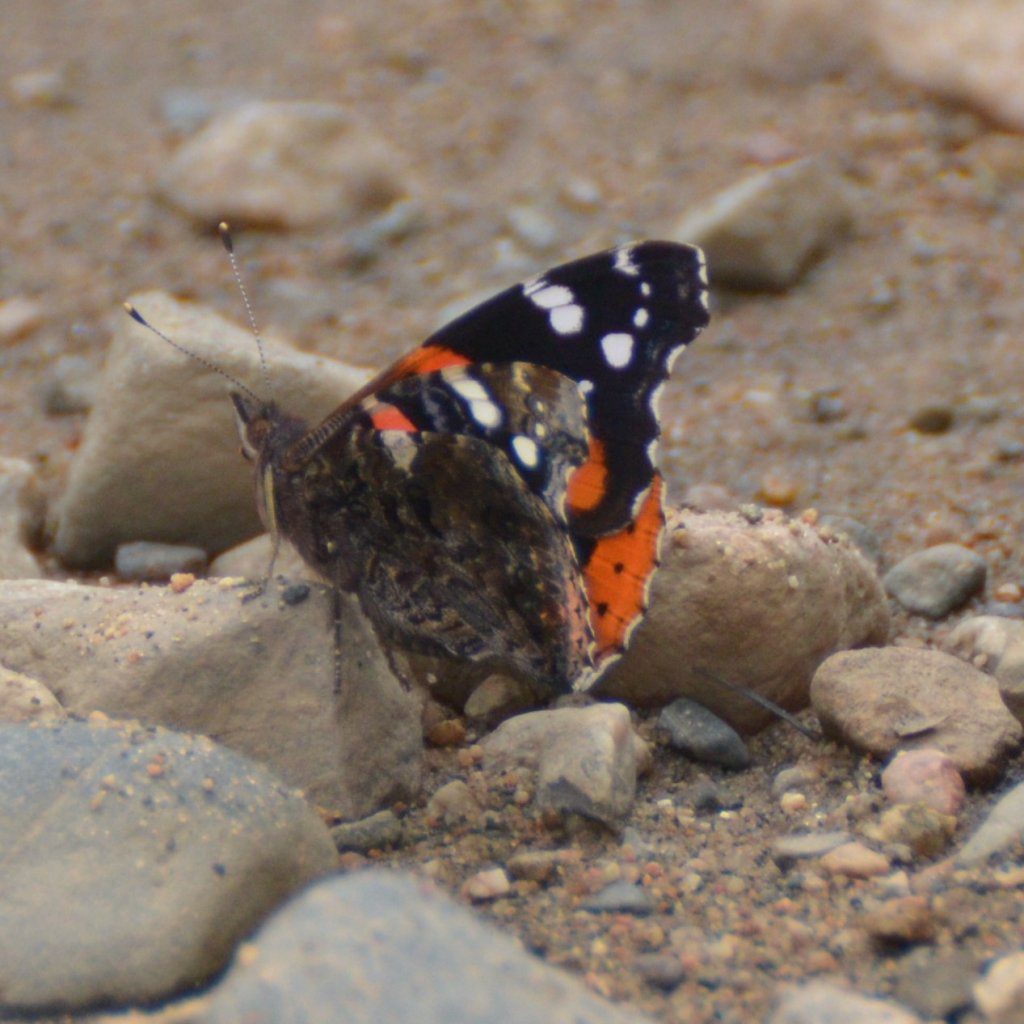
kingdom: Animalia
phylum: Arthropoda
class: Insecta
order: Lepidoptera
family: Nymphalidae
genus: Vanessa
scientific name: Vanessa atalanta
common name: Red Admiral
